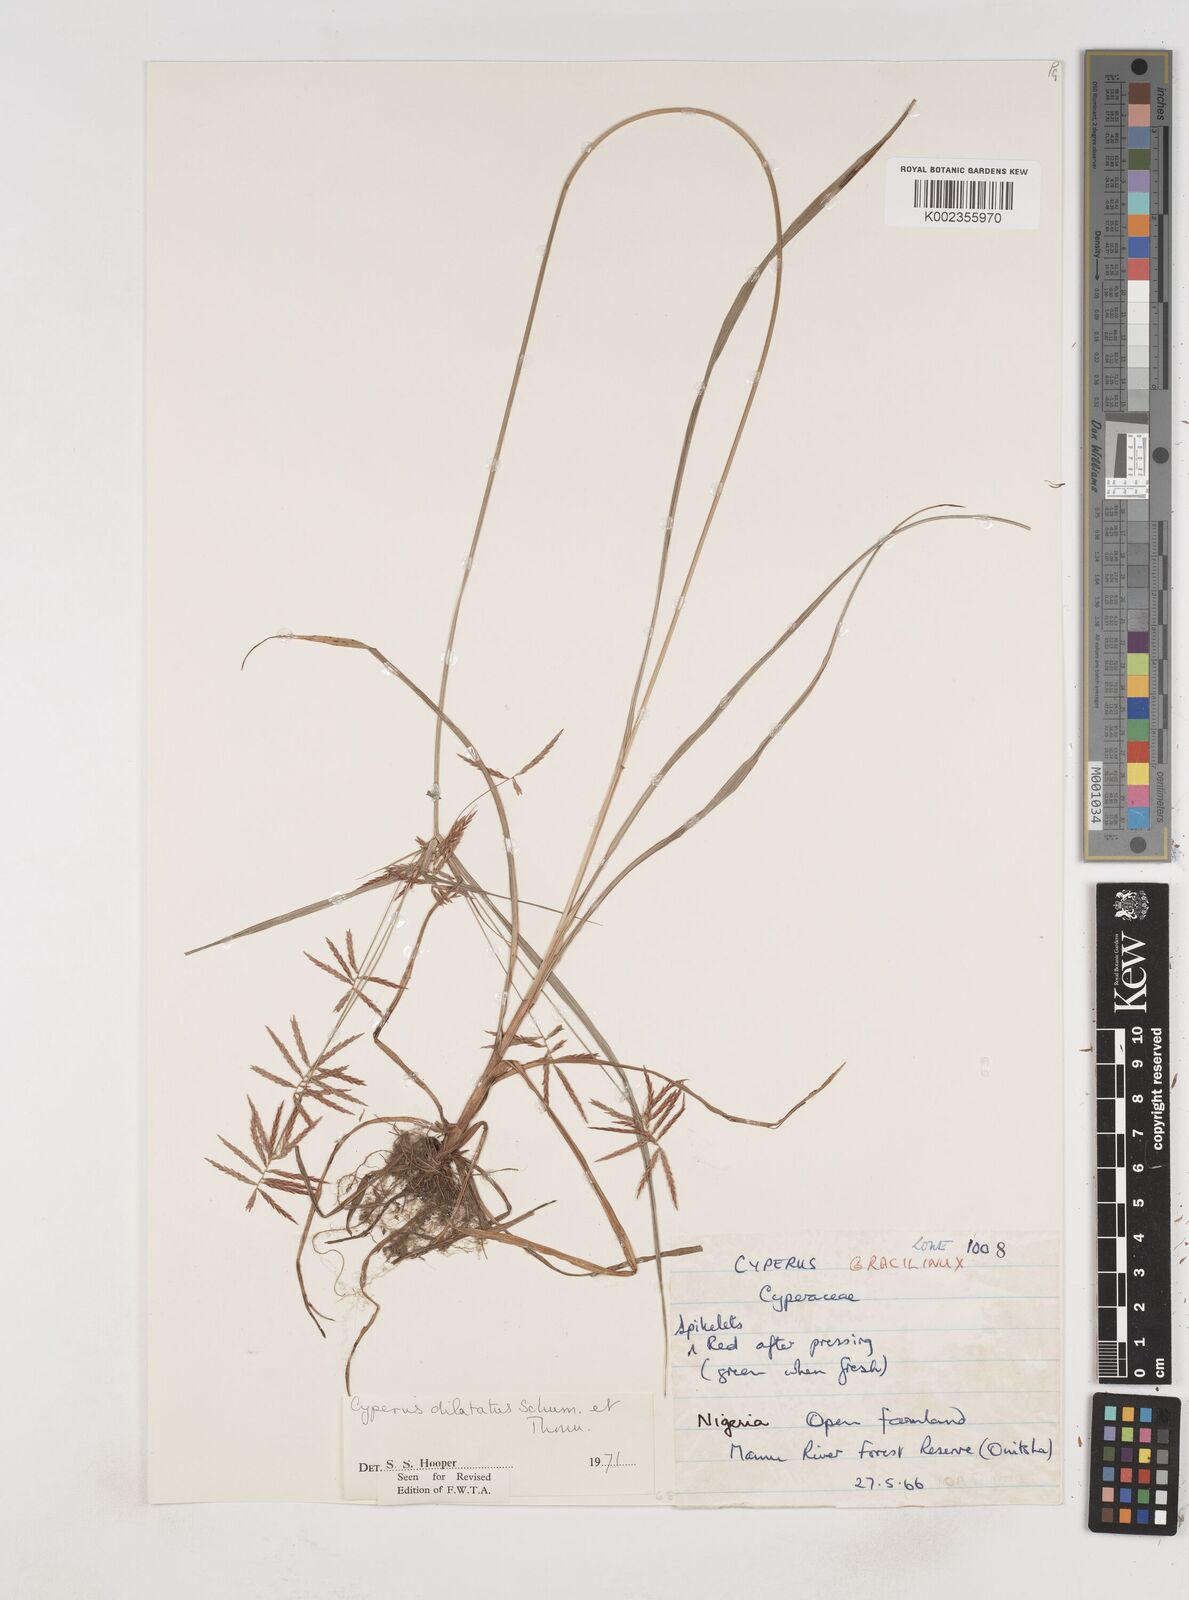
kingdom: Plantae
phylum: Tracheophyta
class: Liliopsida
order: Poales
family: Cyperaceae
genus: Cyperus
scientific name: Cyperus dilatatus
